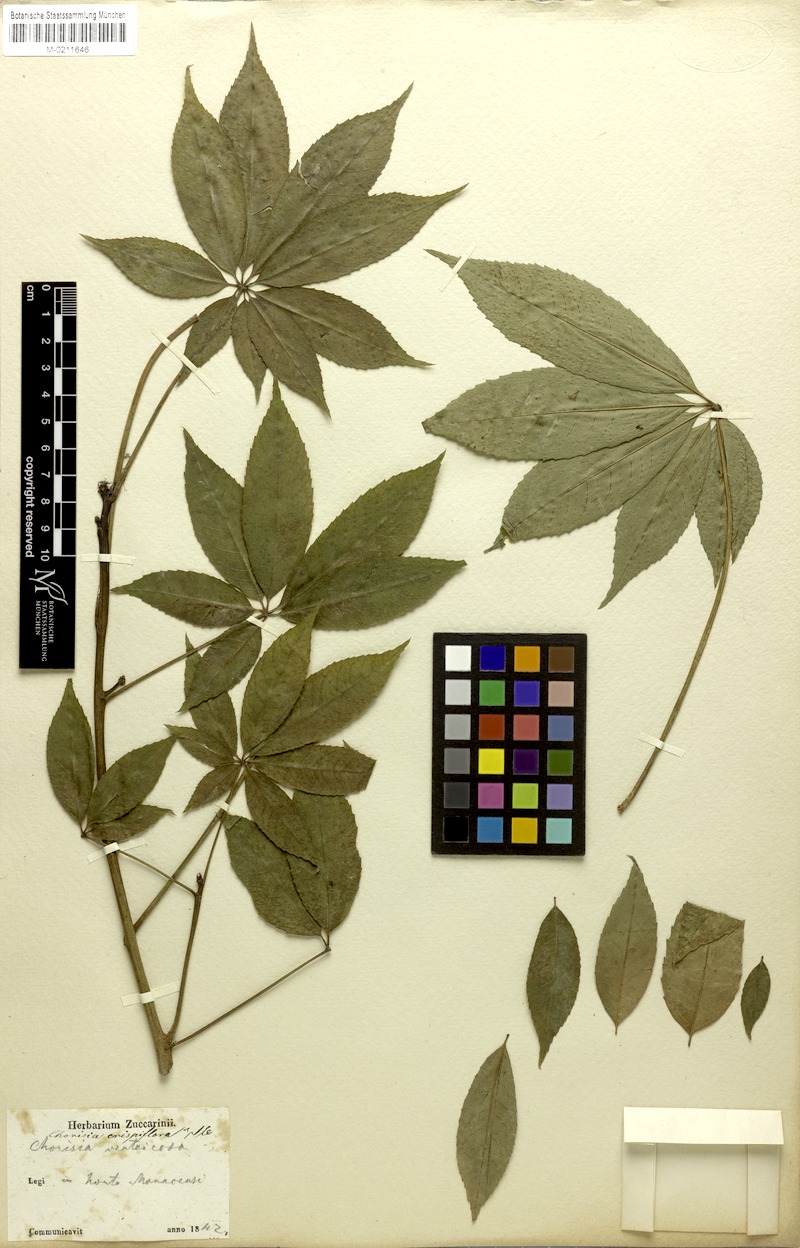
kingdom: Plantae
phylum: Tracheophyta
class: Magnoliopsida
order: Malvales
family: Malvaceae
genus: Ceiba
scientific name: Ceiba crispiflora
